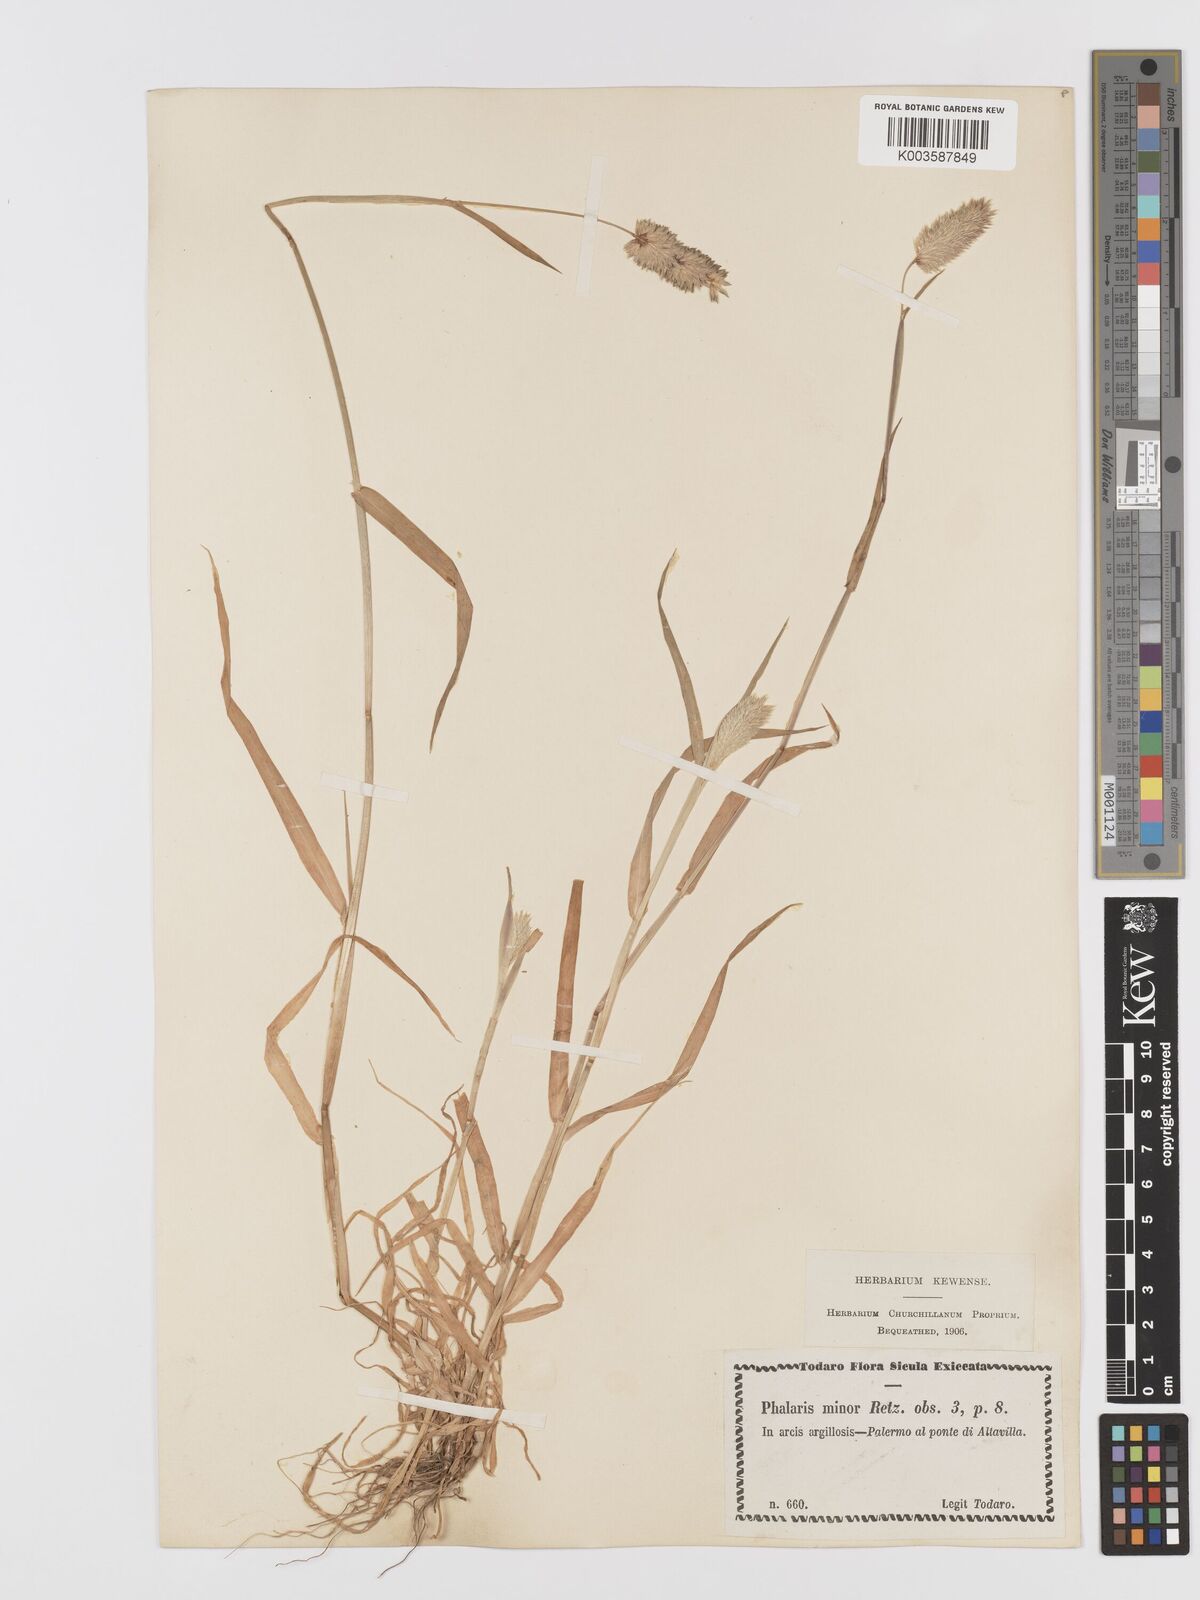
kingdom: Plantae
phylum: Tracheophyta
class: Liliopsida
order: Poales
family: Poaceae
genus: Phalaris
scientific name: Phalaris minor
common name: Littleseed canarygrass
